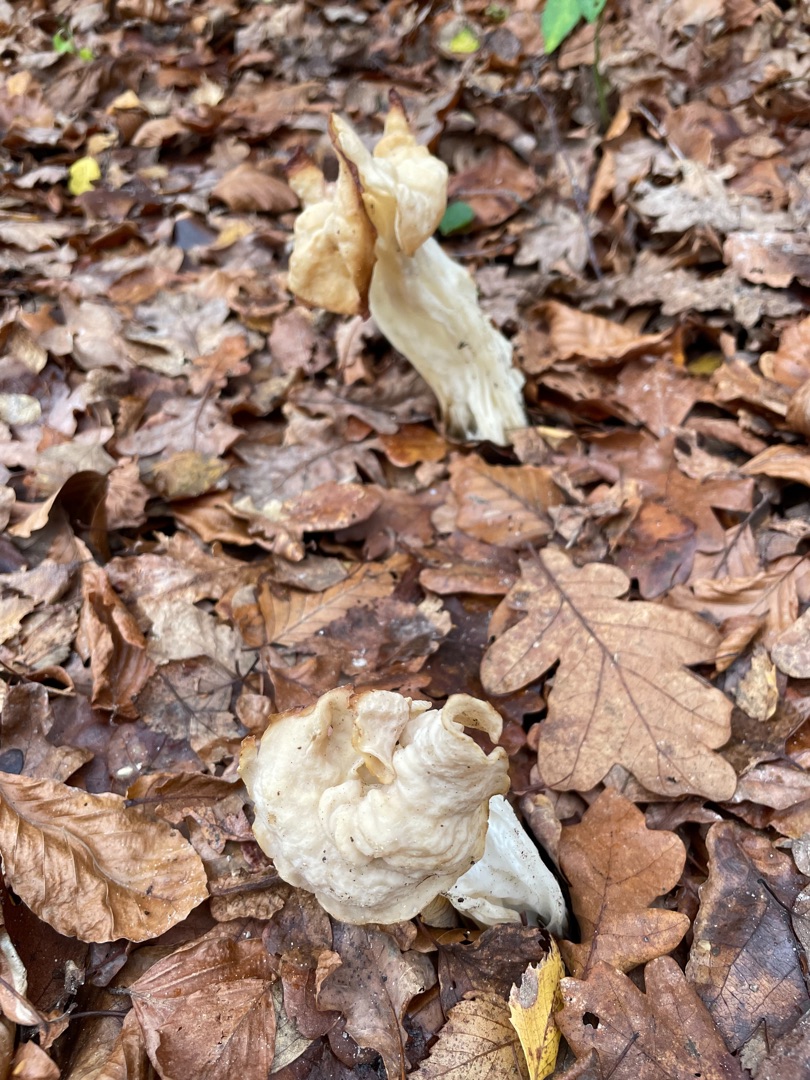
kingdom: Fungi
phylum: Ascomycota
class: Pezizomycetes
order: Pezizales
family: Helvellaceae
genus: Helvella
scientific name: Helvella crispa
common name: Kruset foldhat
